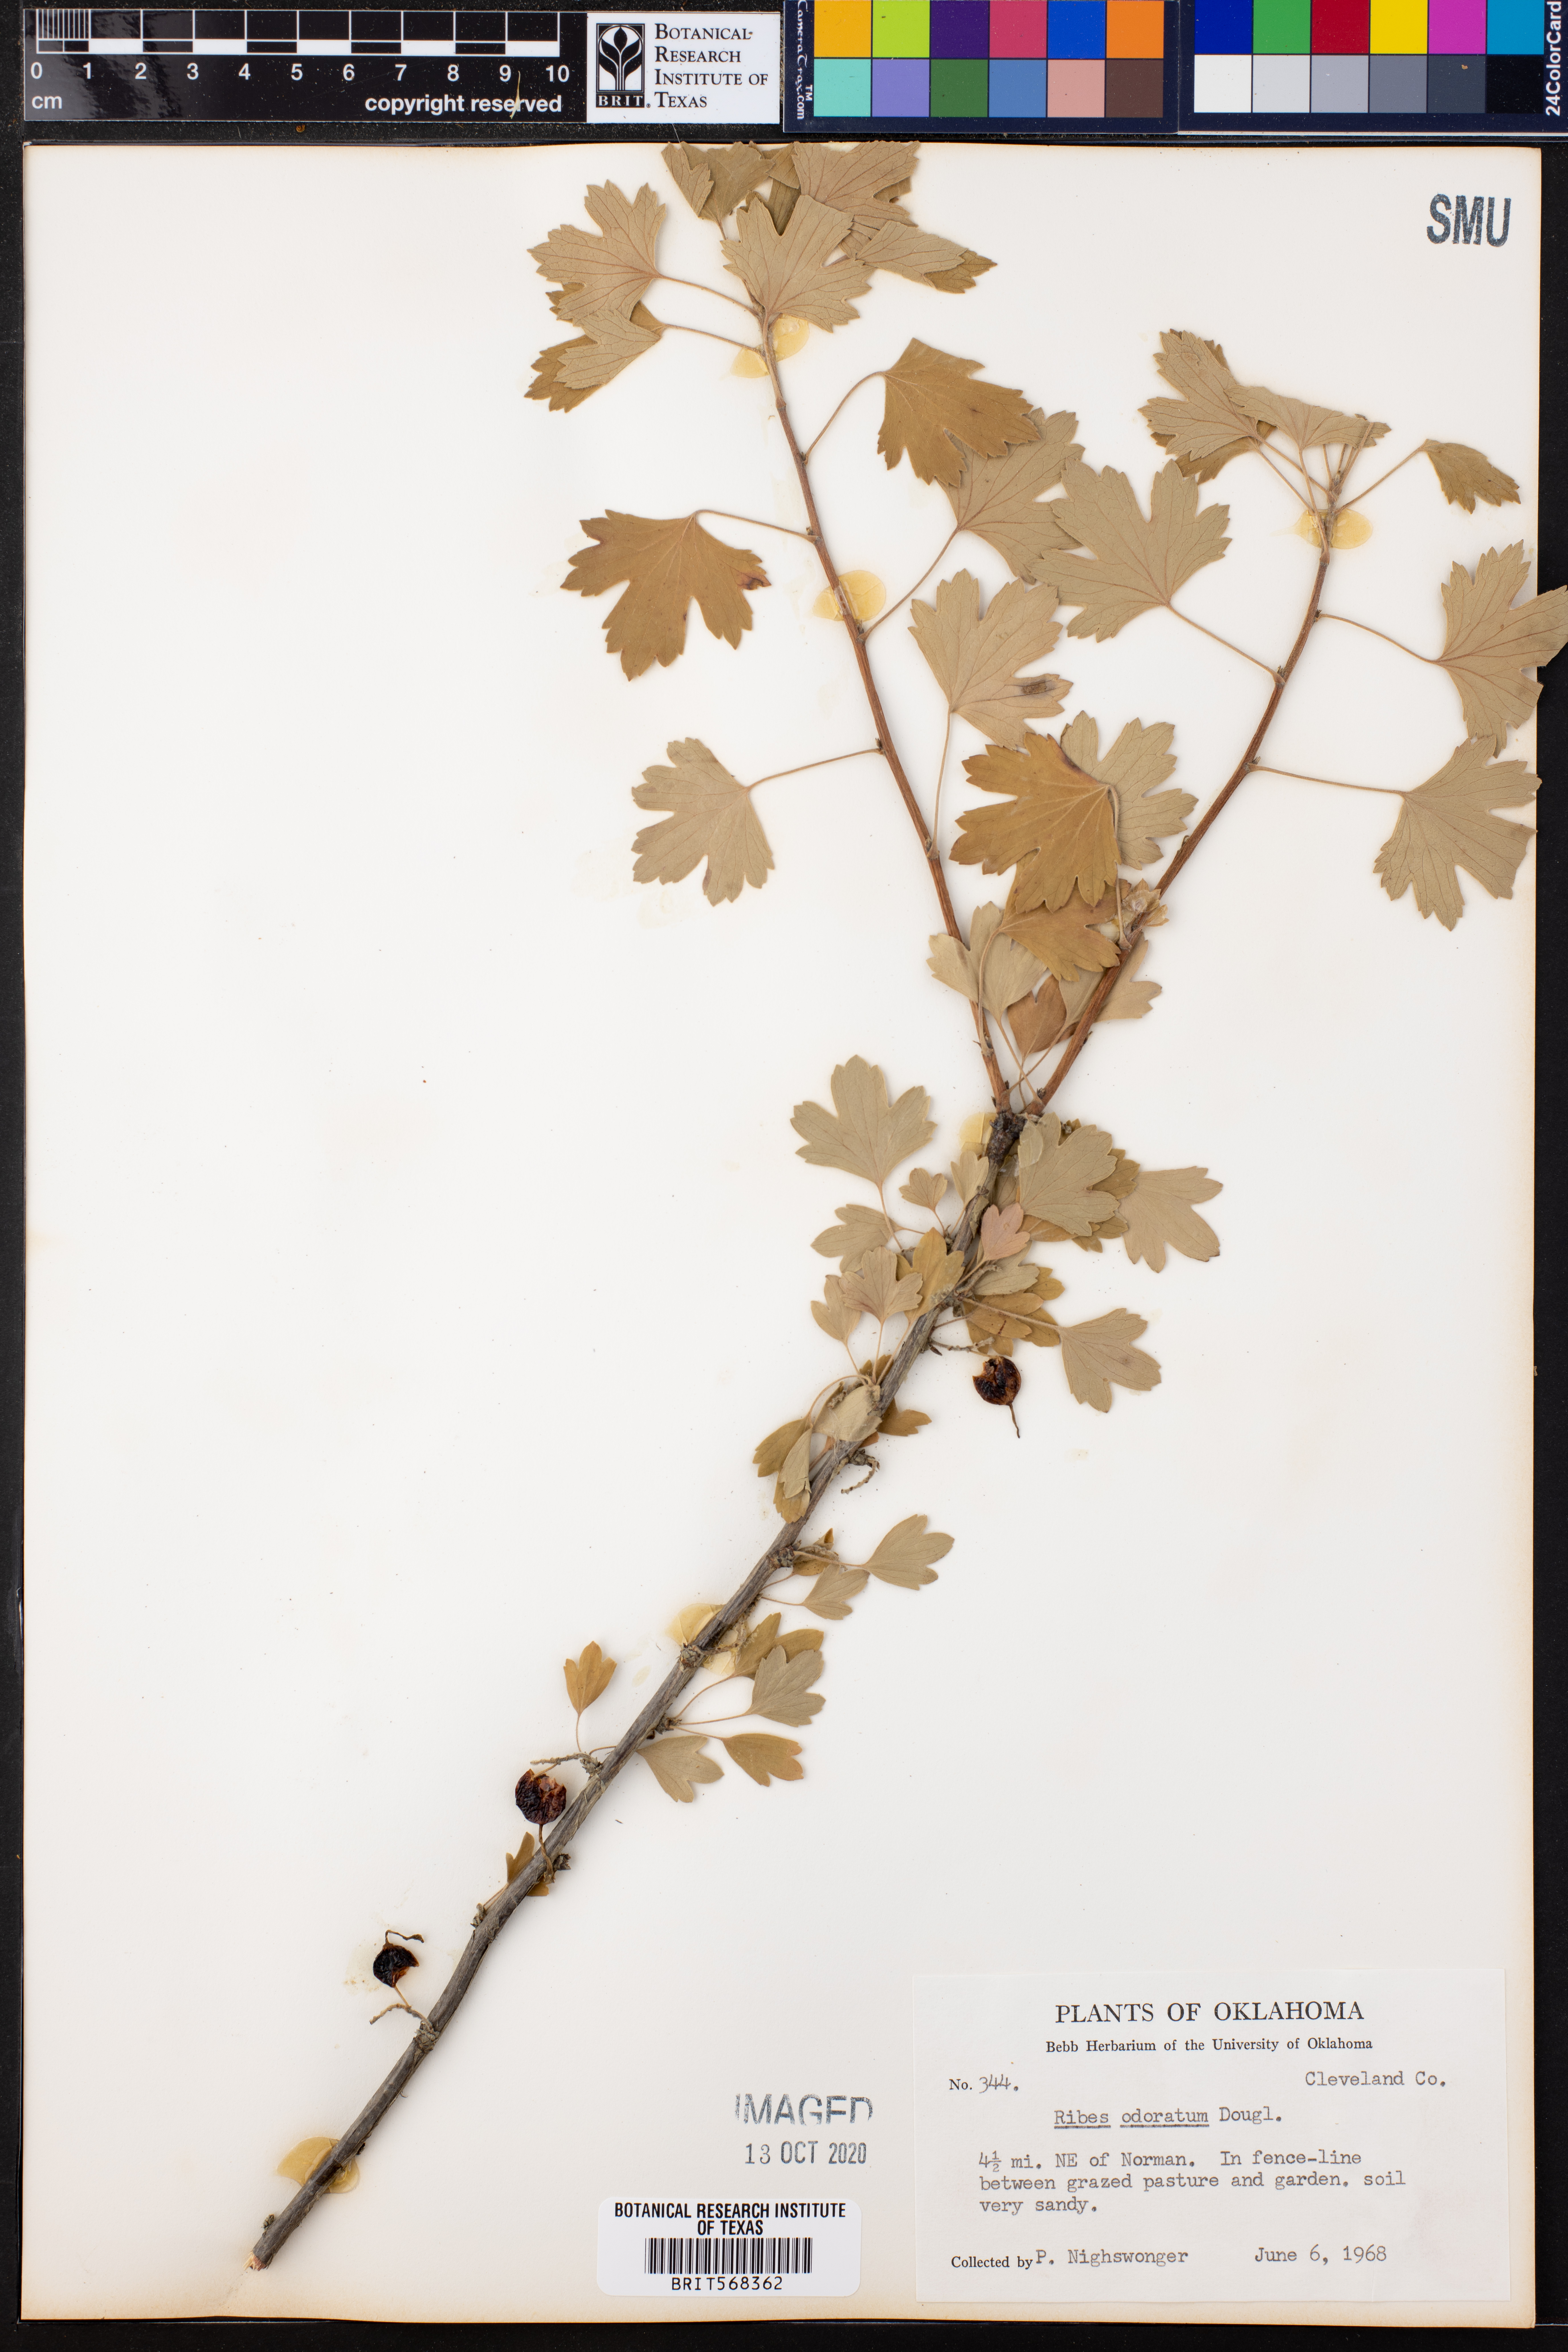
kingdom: Plantae
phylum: Tracheophyta
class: Magnoliopsida
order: Saxifragales
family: Grossulariaceae
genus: Ribes
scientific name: Ribes aureum
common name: Golden currant
